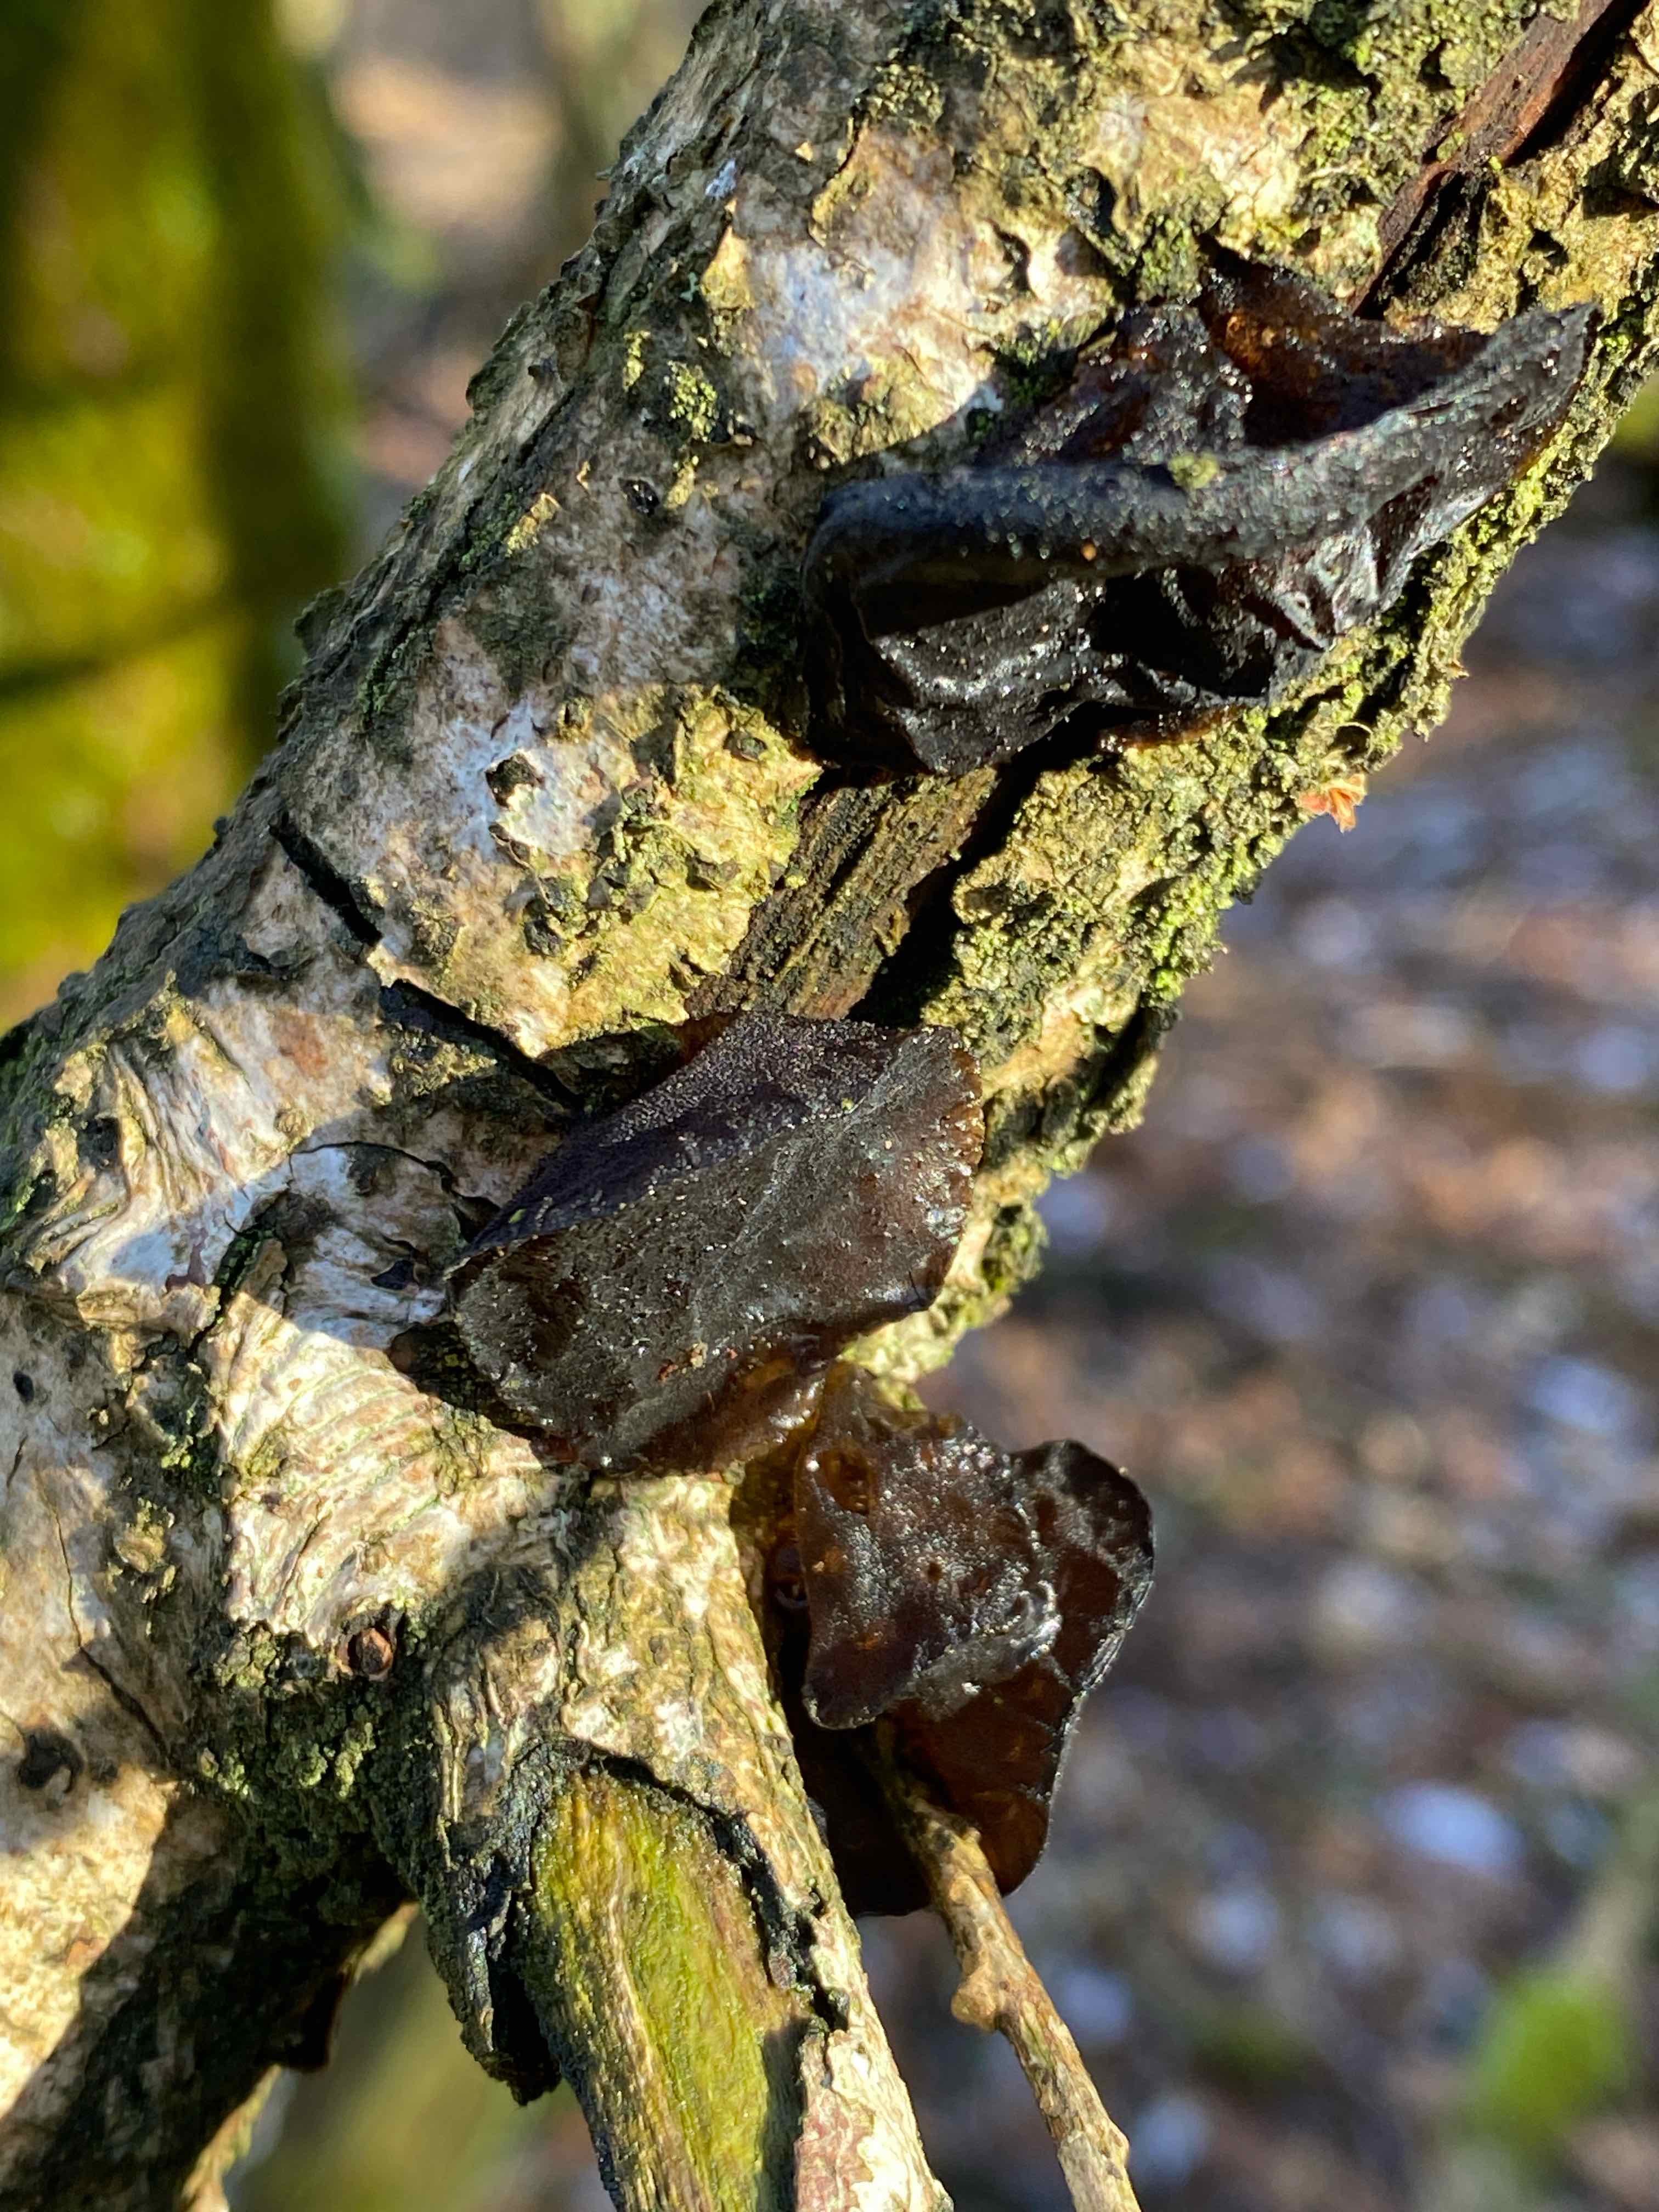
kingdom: Fungi
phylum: Basidiomycota
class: Agaricomycetes
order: Auriculariales
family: Auriculariaceae
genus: Exidia
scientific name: Exidia glandulosa
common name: ege-bævretop
